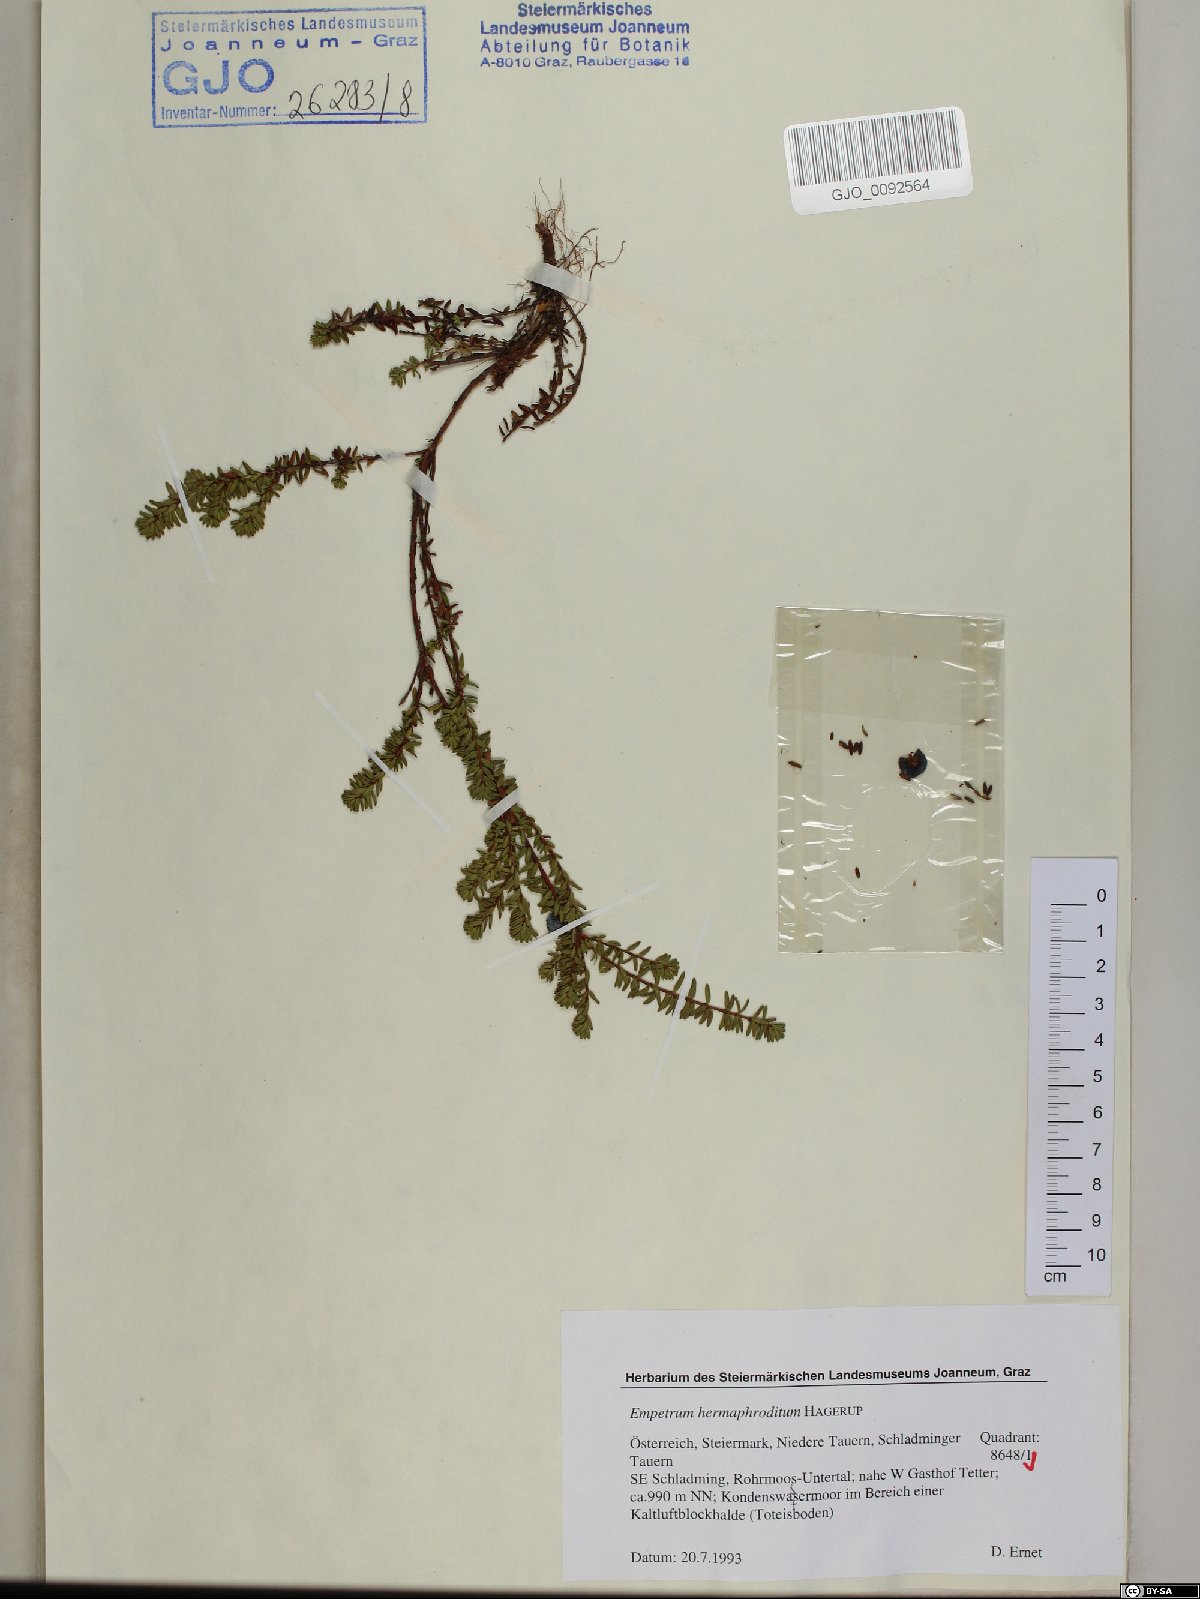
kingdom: Plantae
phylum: Tracheophyta
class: Magnoliopsida
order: Ericales
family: Ericaceae
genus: Empetrum
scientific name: Empetrum hermaphroditum
